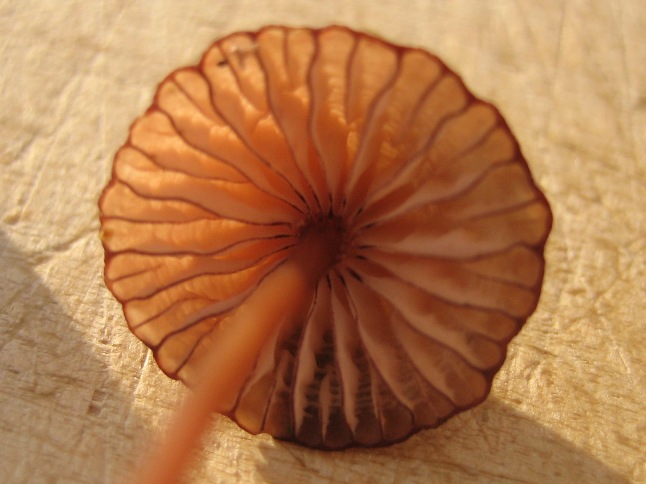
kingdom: Fungi
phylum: Basidiomycota
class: Agaricomycetes
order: Agaricales
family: Mycenaceae
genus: Mycena
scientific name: Mycena sanguinolenta
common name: rødmælket huesvamp
